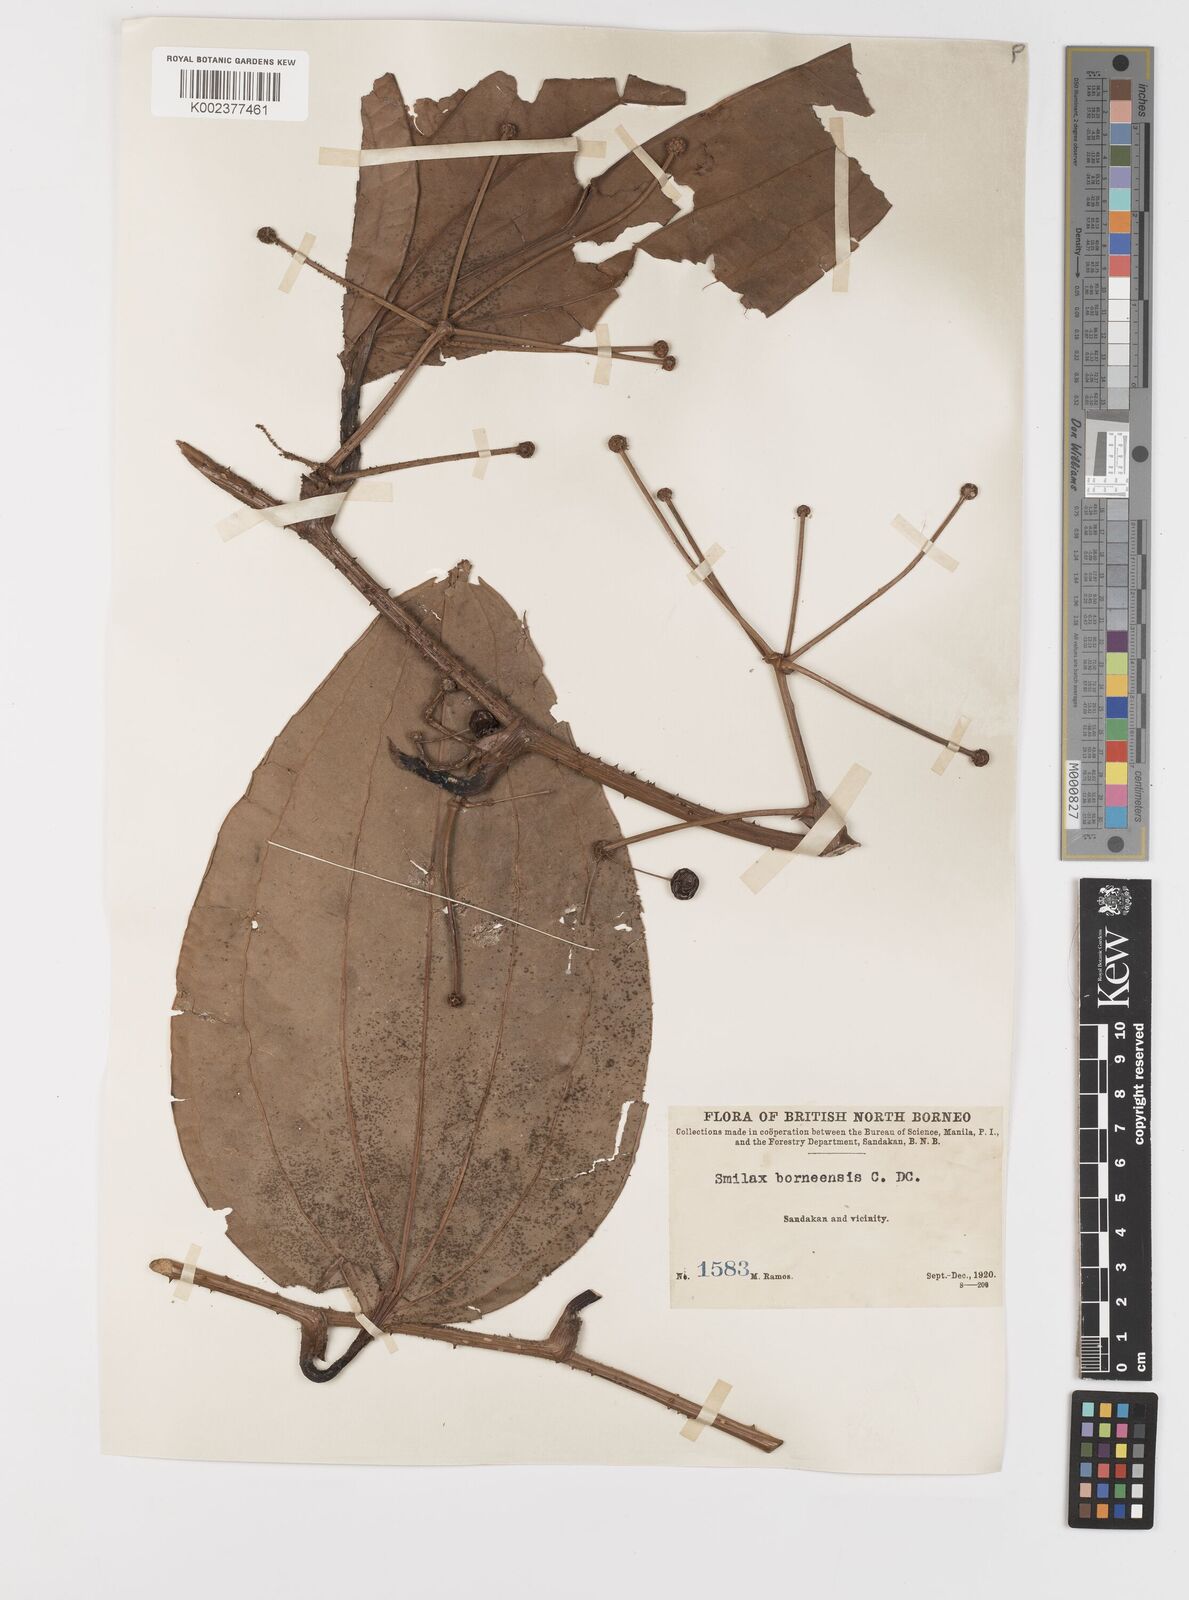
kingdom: Plantae
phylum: Tracheophyta
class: Liliopsida
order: Liliales
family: Smilacaceae
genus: Smilax
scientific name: Smilax borneensis
